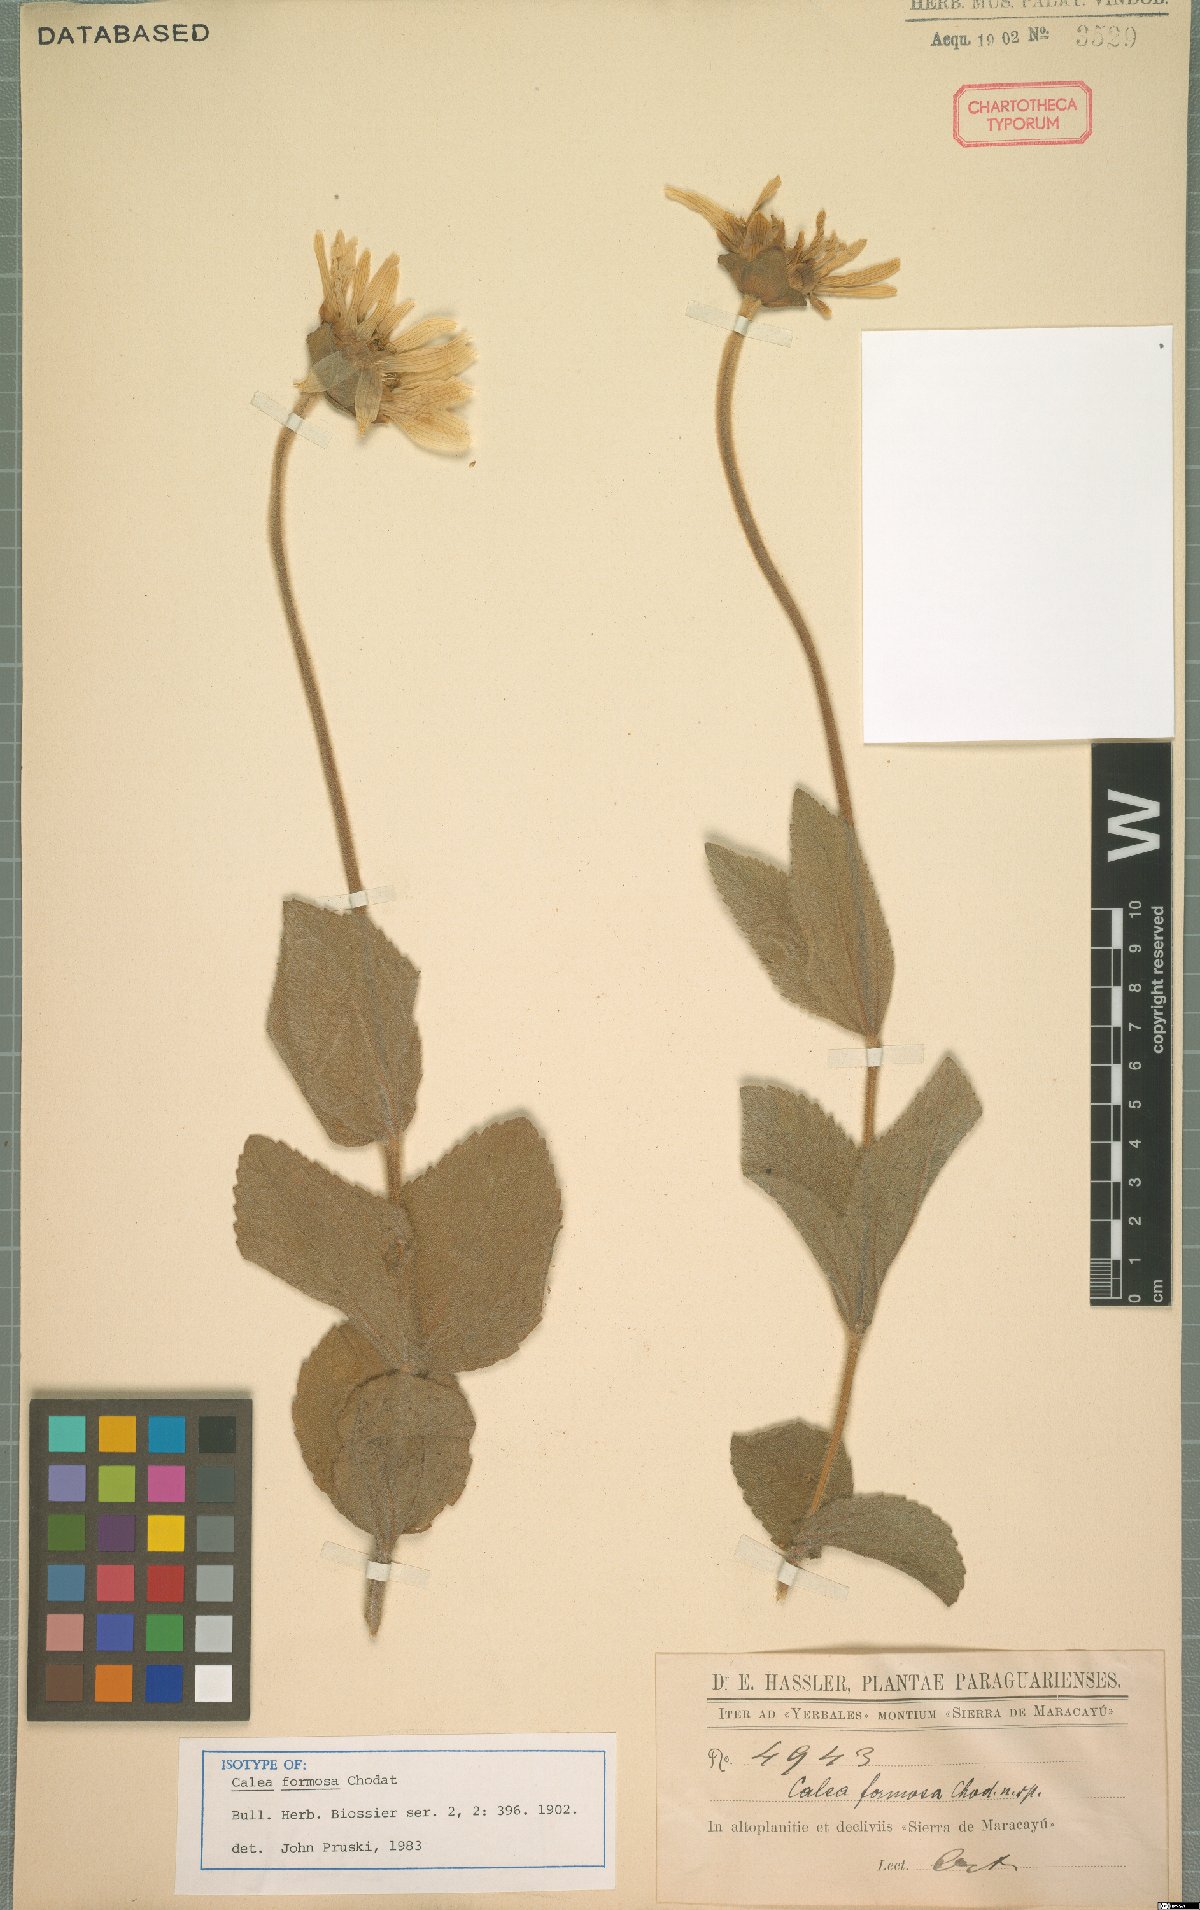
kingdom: Plantae
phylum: Tracheophyta
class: Magnoliopsida
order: Asterales
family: Asteraceae
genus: Calea
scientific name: Calea formosa
